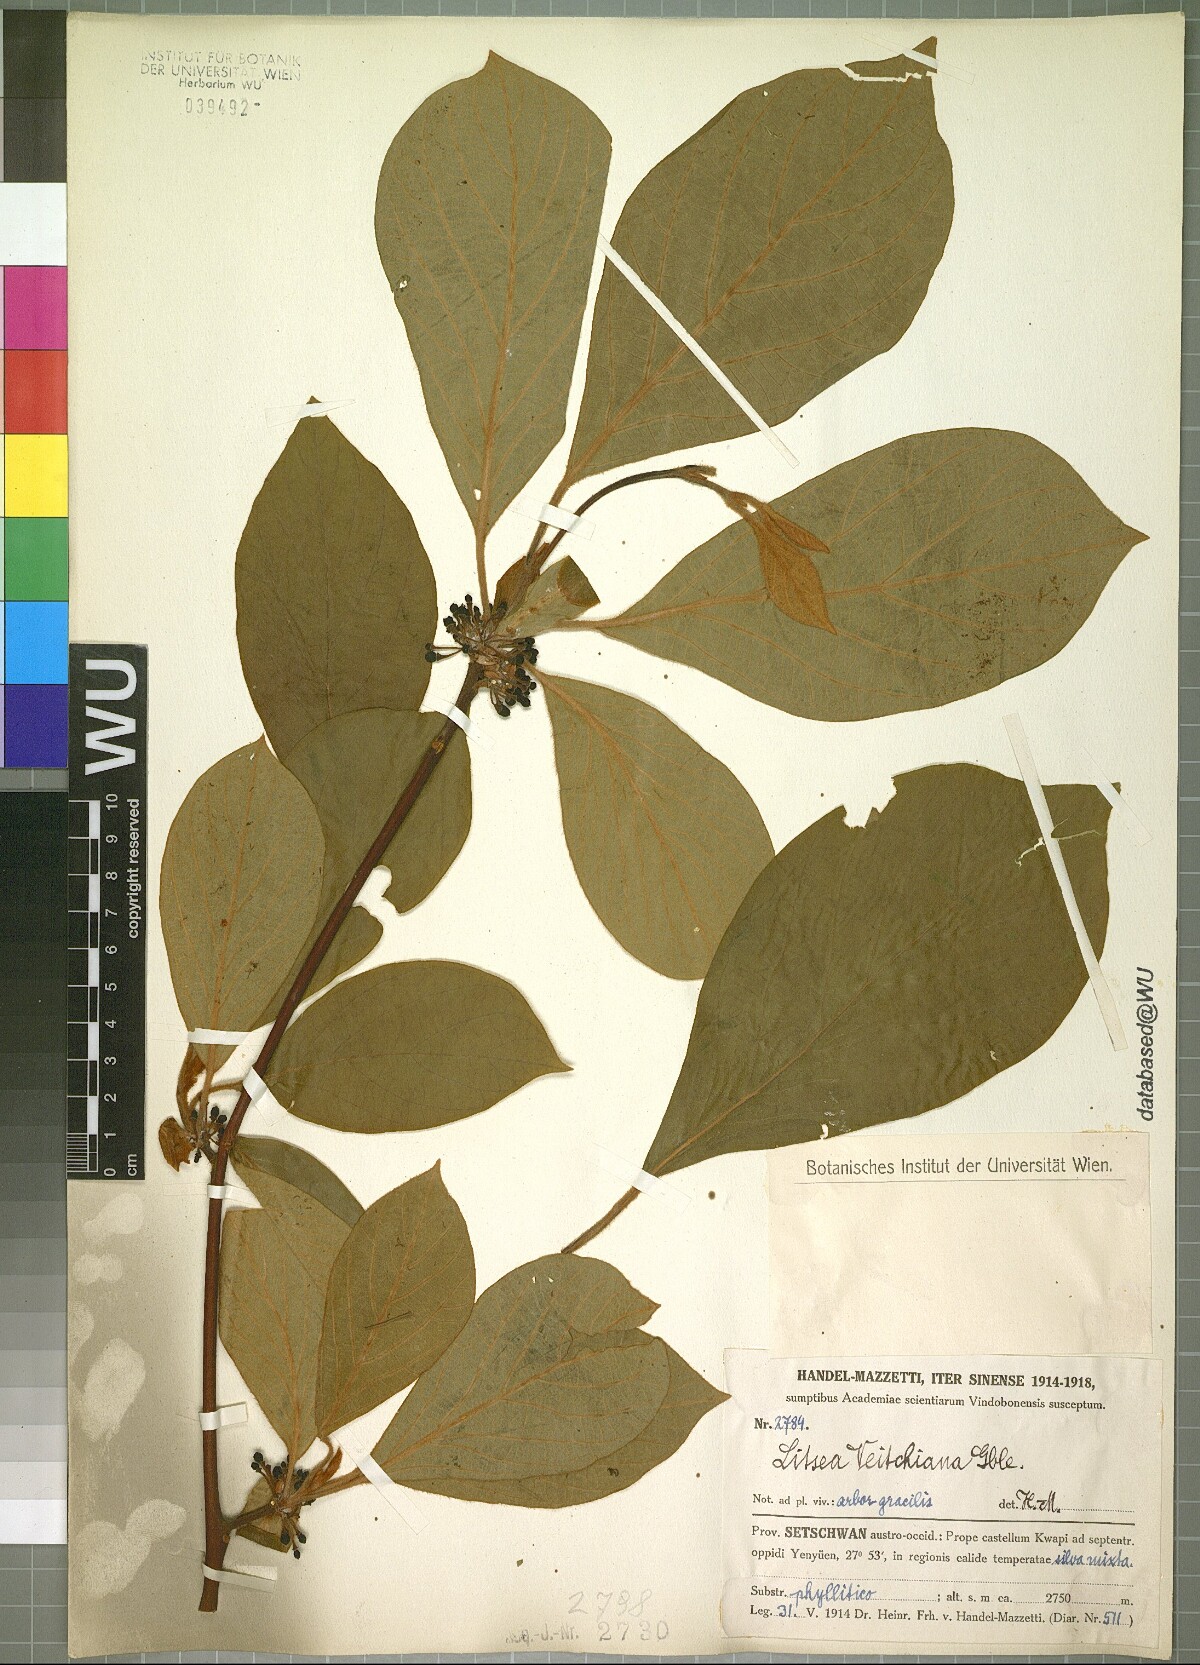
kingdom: Plantae
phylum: Tracheophyta
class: Magnoliopsida
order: Laurales
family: Lauraceae
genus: Litsea
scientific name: Litsea veitchiana
